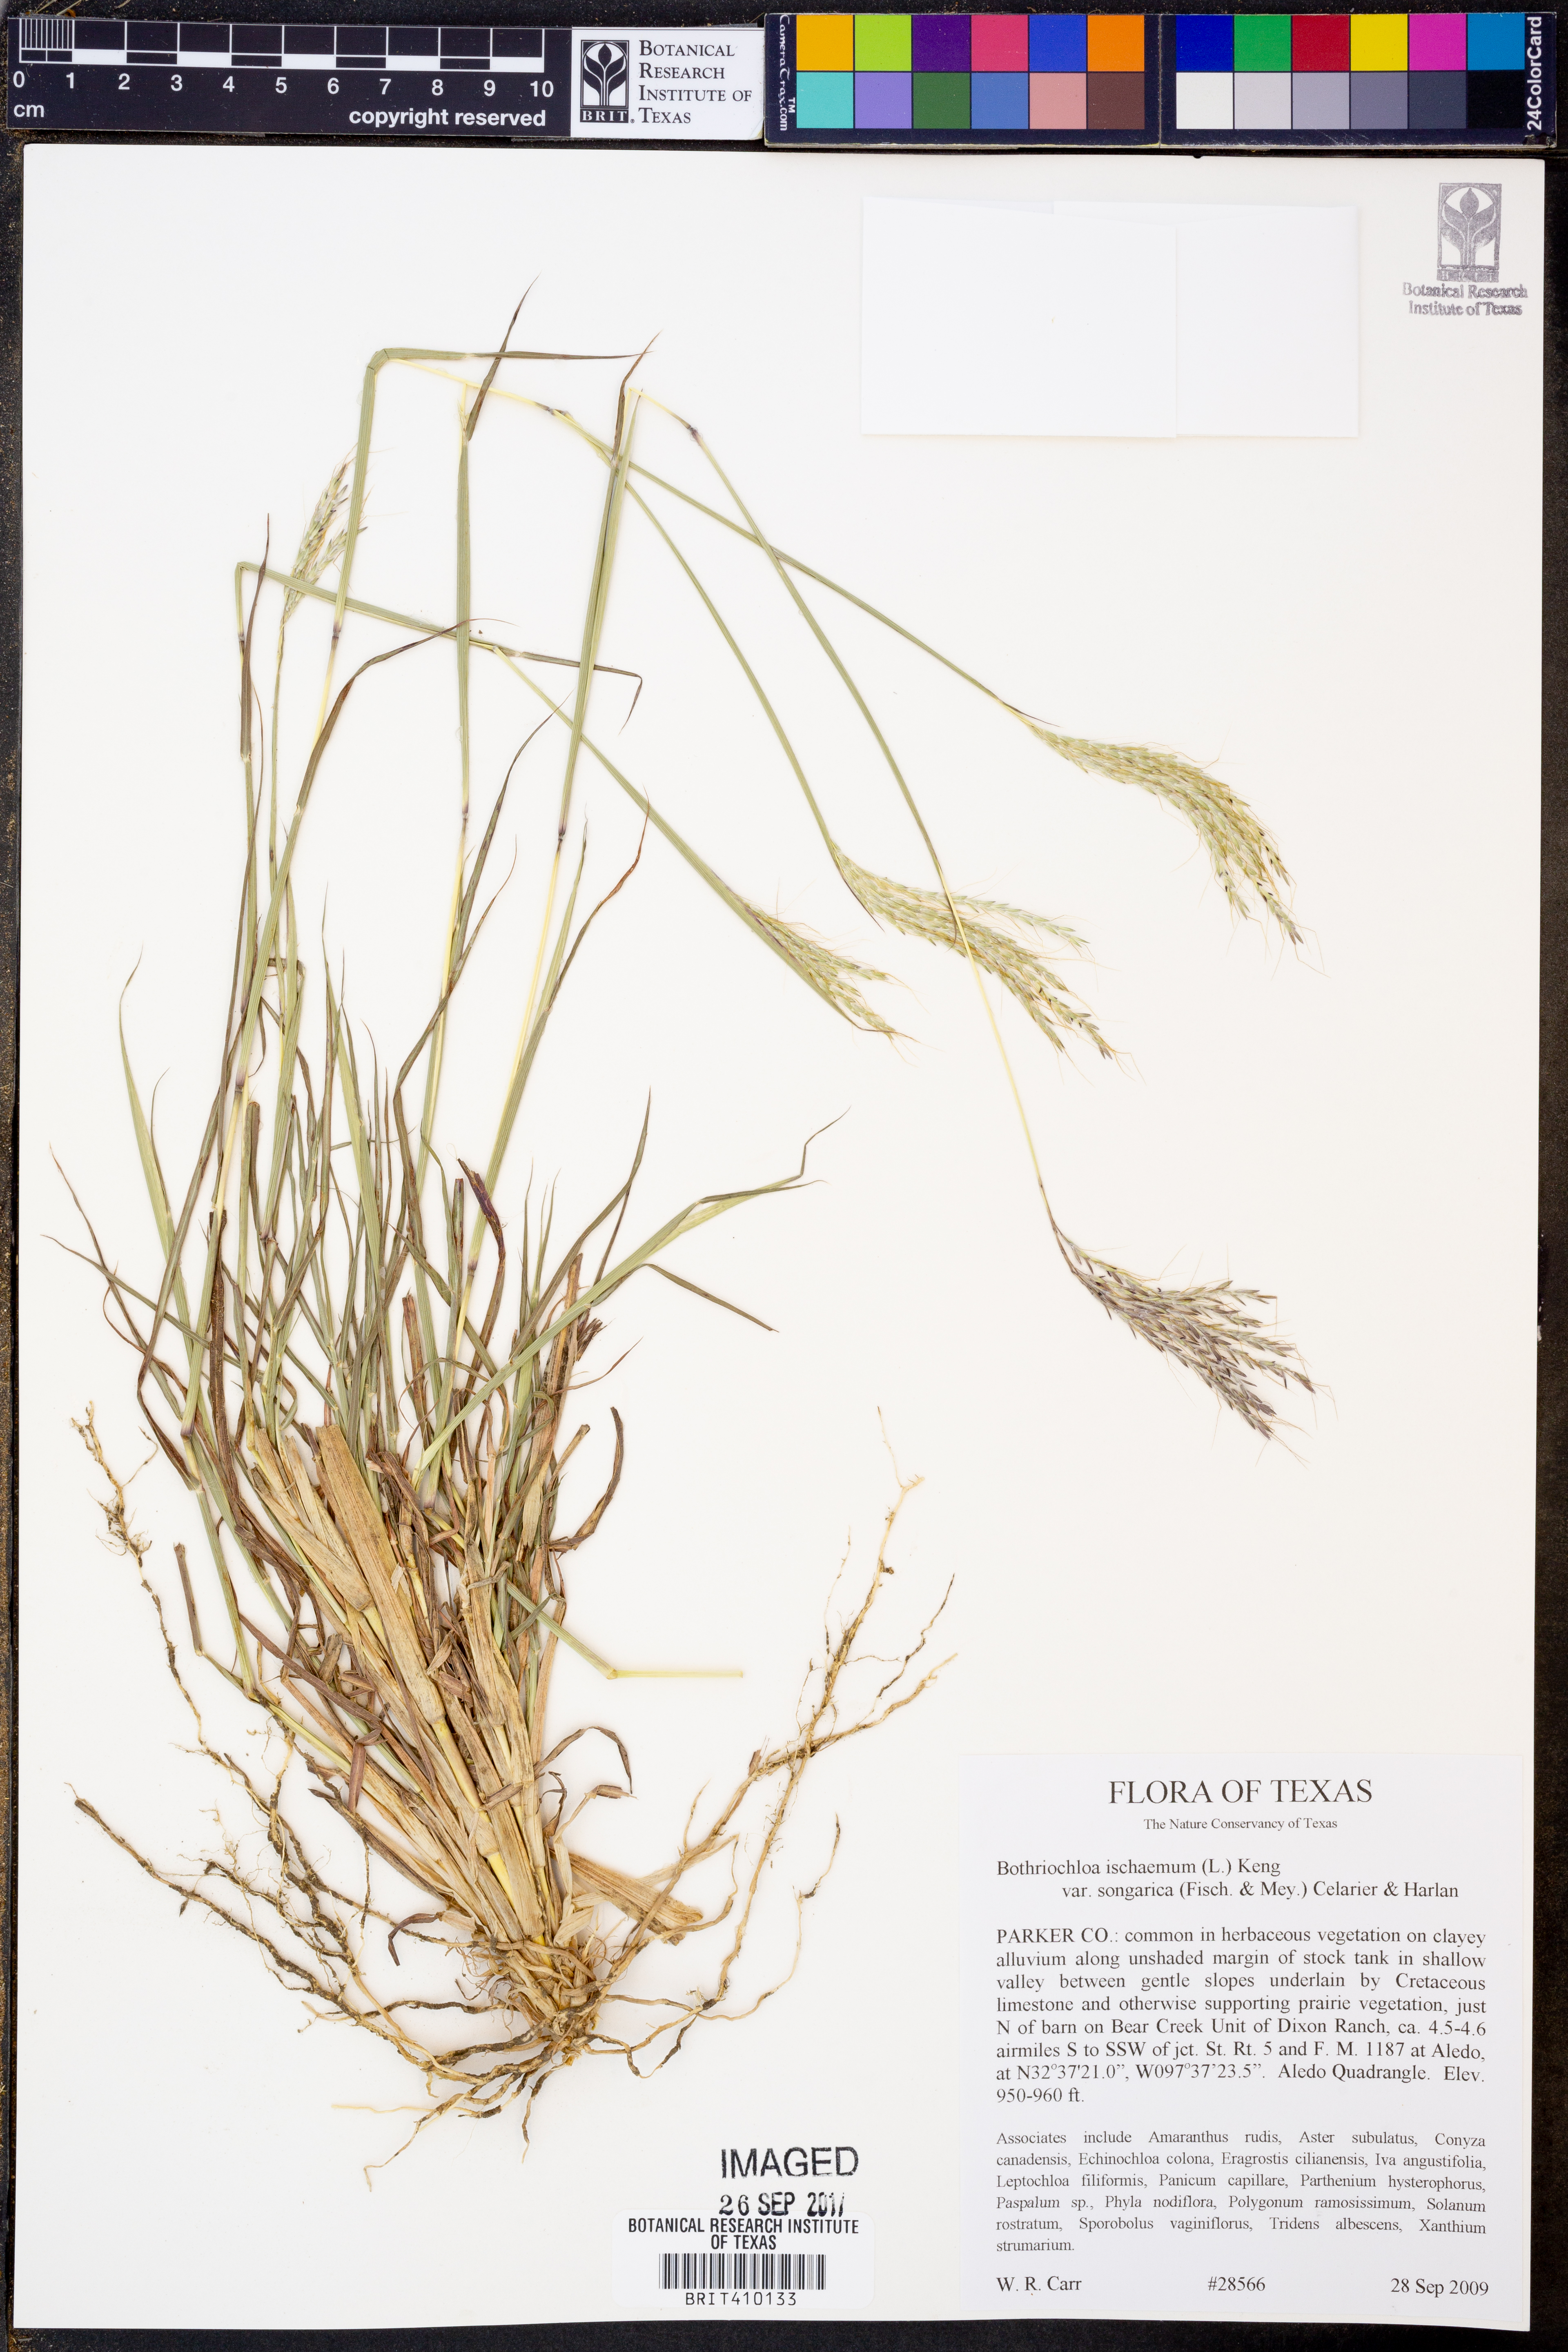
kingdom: Plantae
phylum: Tracheophyta
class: Liliopsida
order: Poales
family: Poaceae
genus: Bothriochloa
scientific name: Bothriochloa ischaemum
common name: Yellow bluestem
